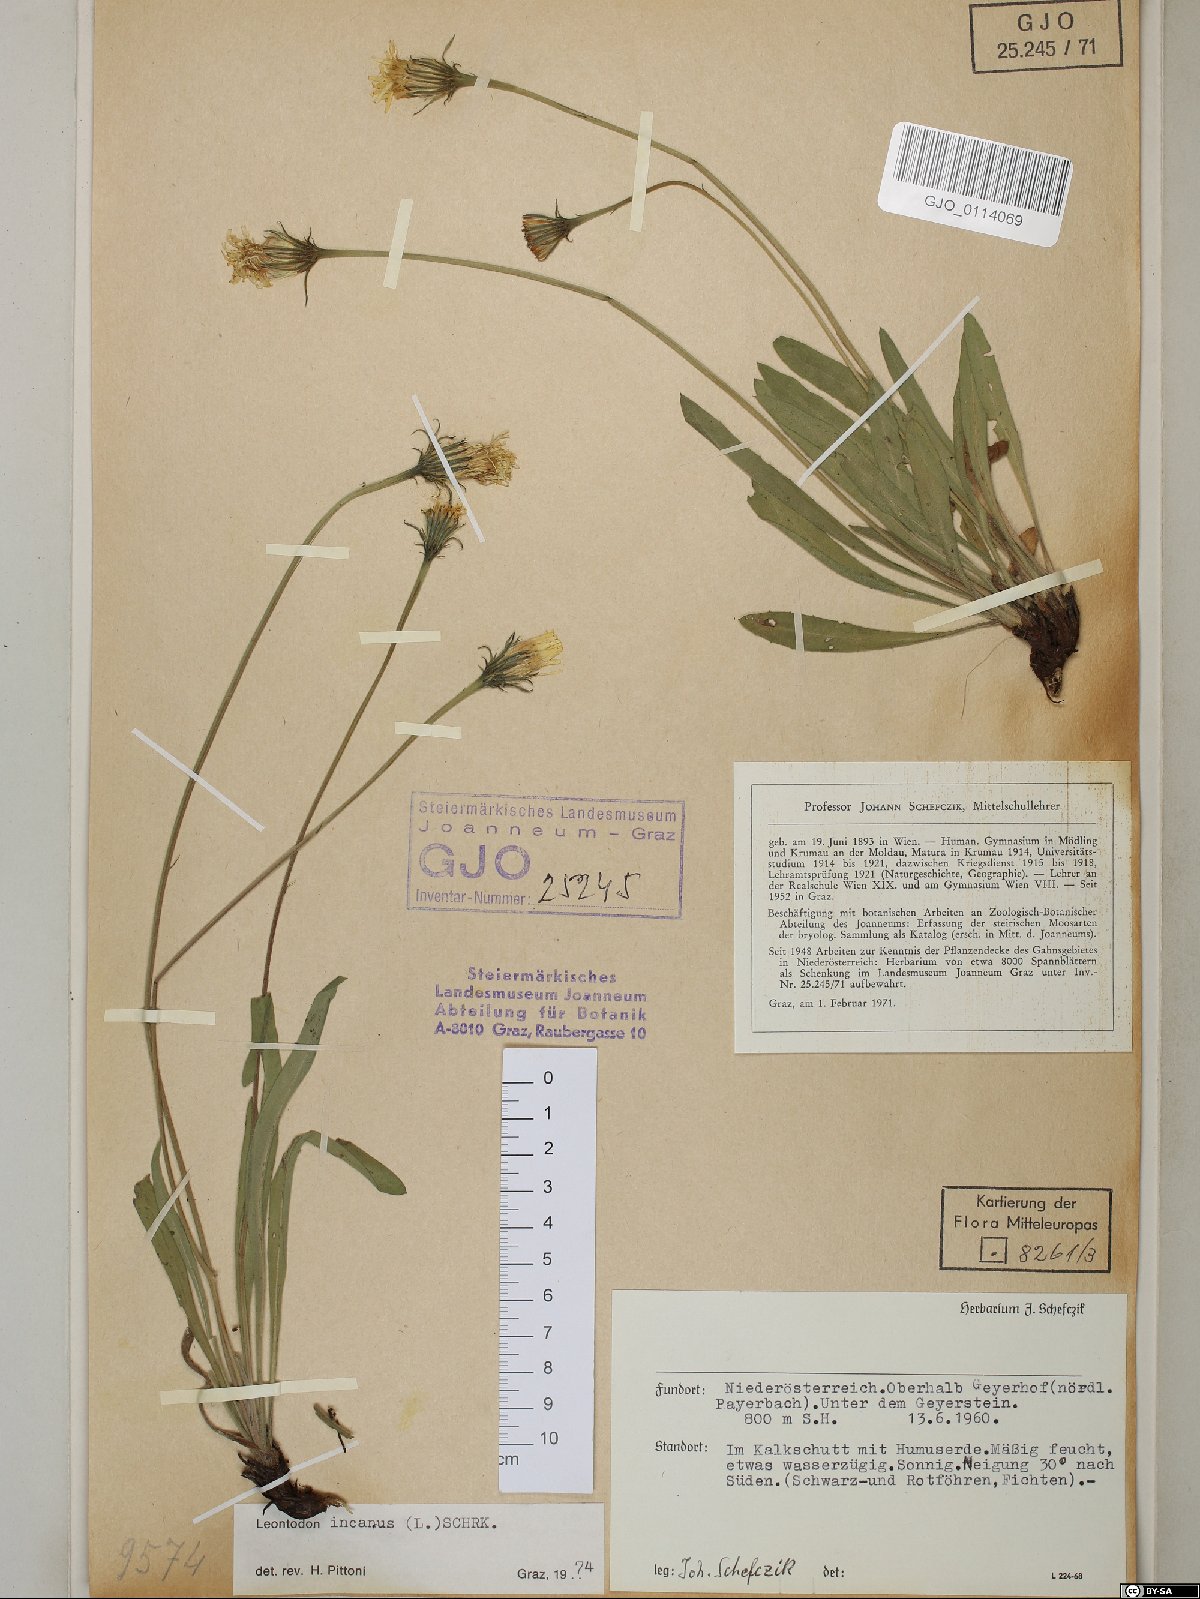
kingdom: Plantae
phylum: Tracheophyta
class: Magnoliopsida
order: Asterales
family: Asteraceae
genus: Leontodon
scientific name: Leontodon incanus
